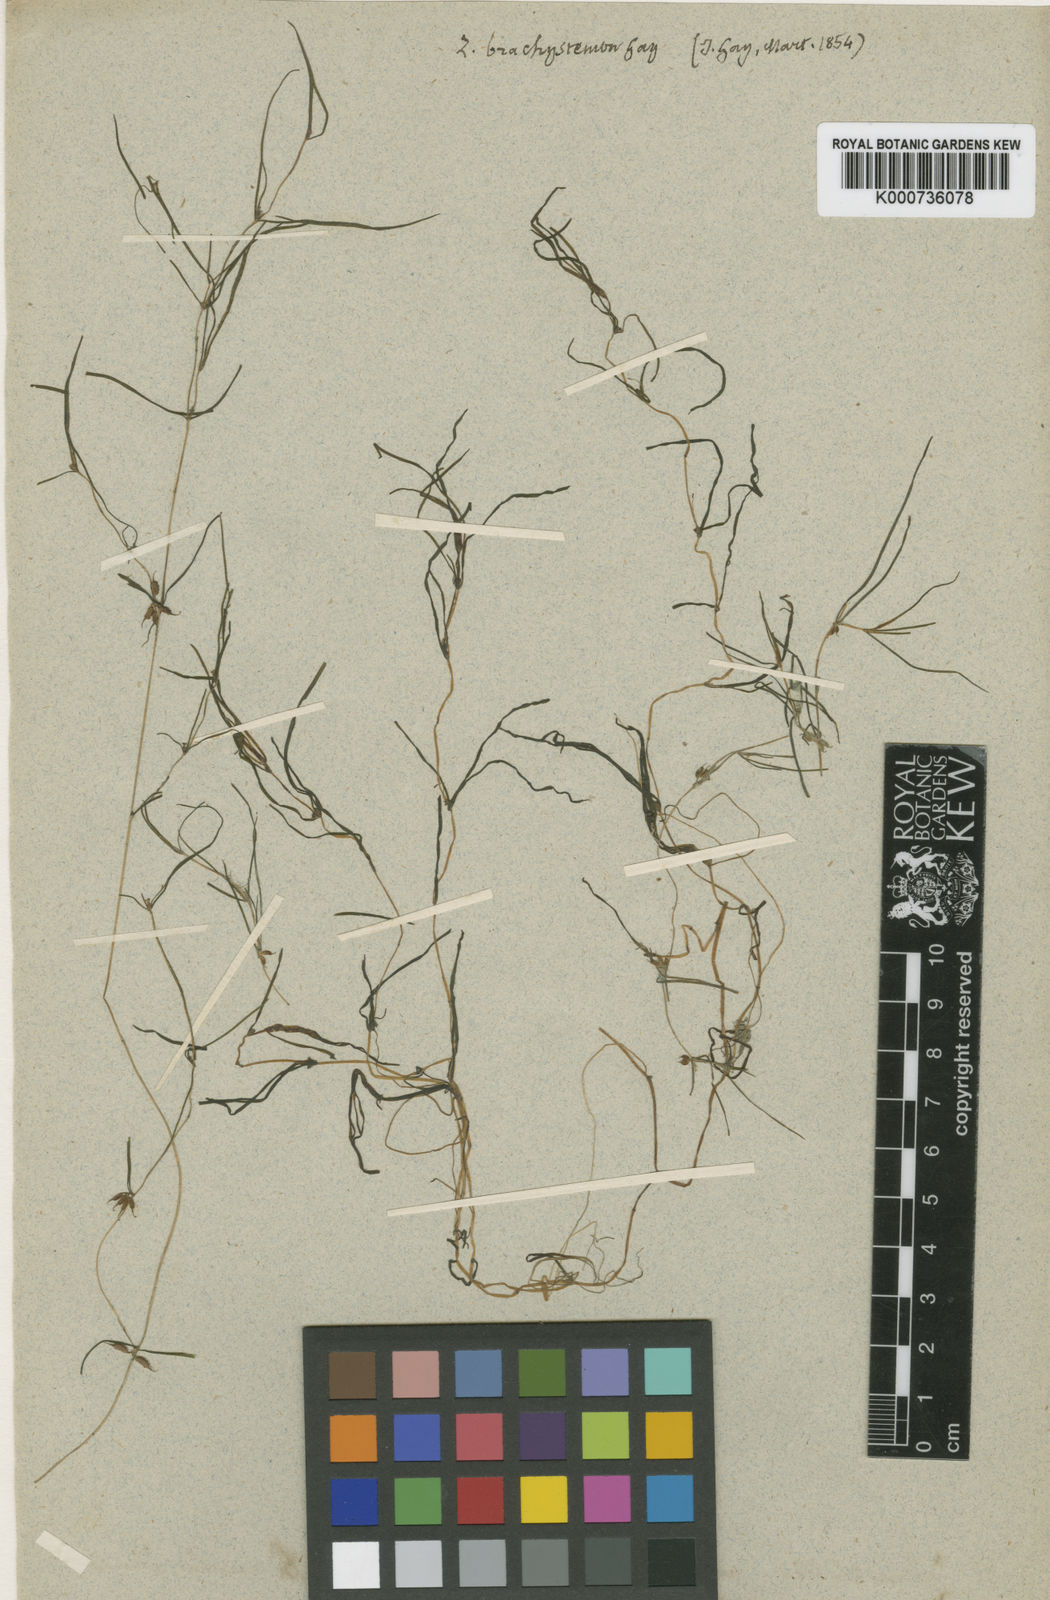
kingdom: Plantae
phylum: Tracheophyta
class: Liliopsida
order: Alismatales
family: Potamogetonaceae
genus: Zannichellia
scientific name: Zannichellia palustris
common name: Horned pondweed
